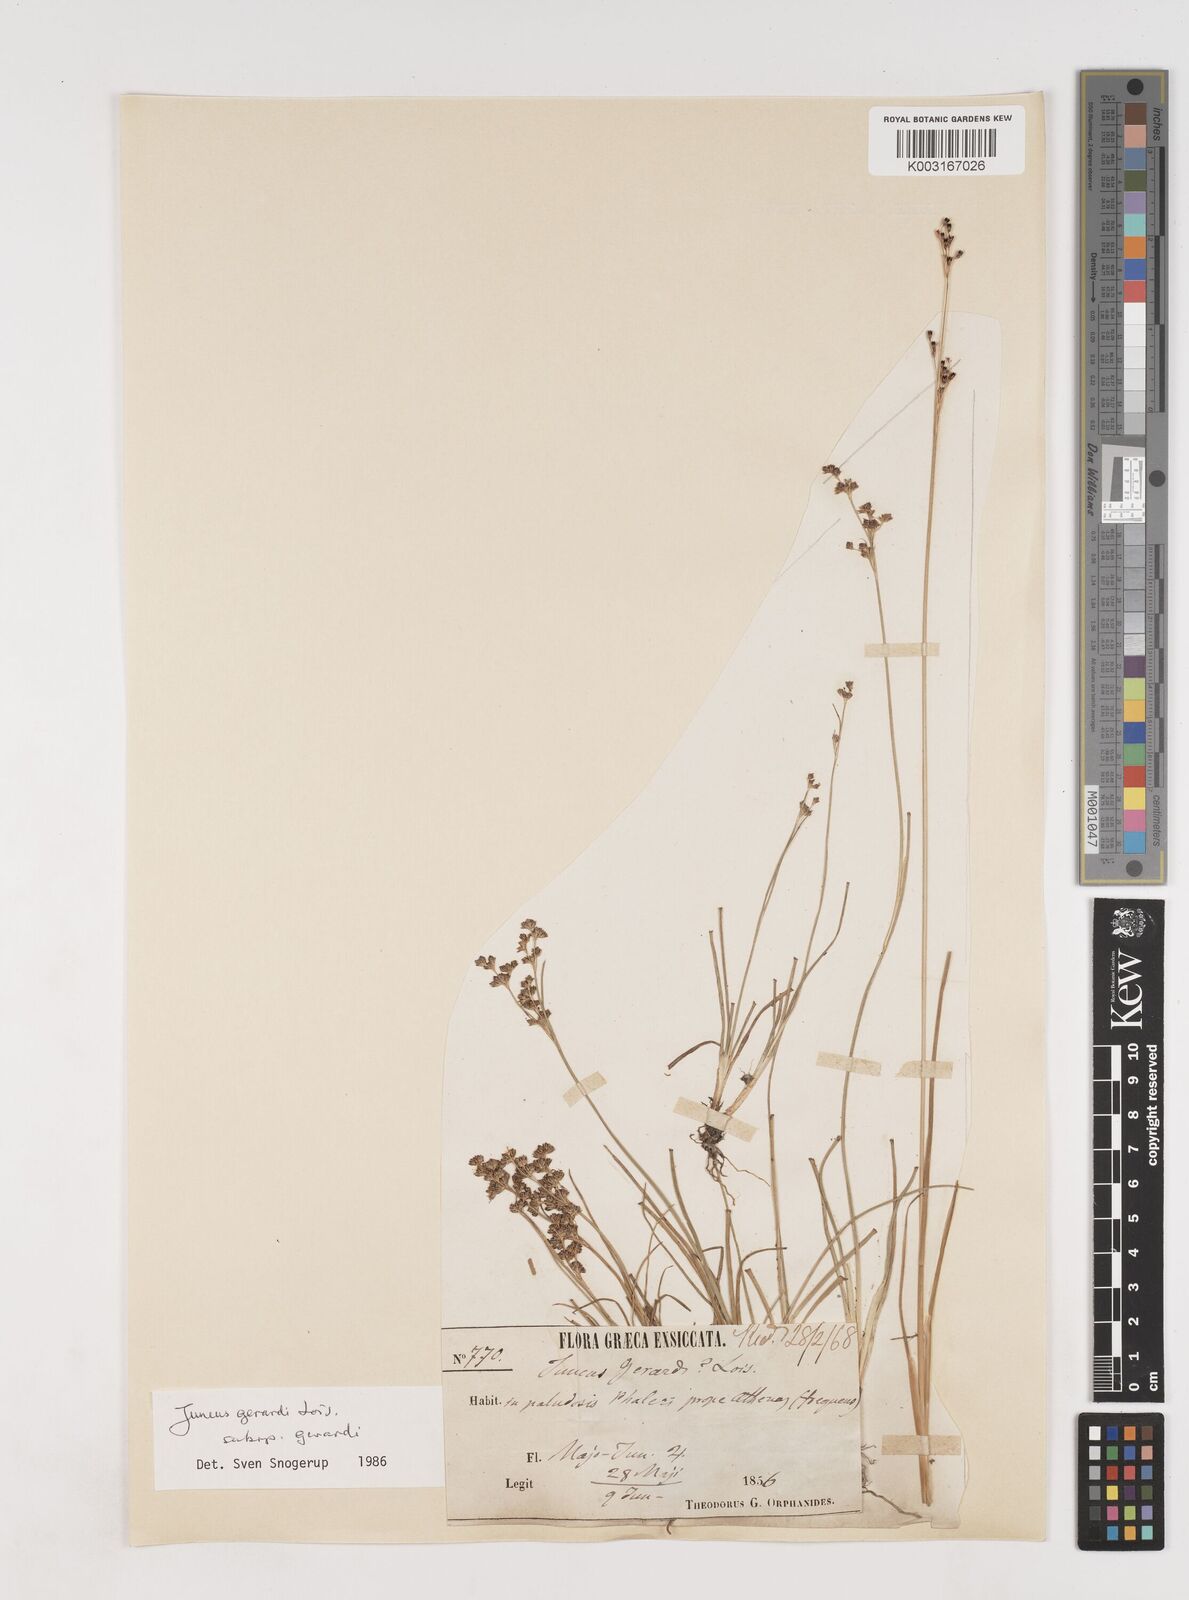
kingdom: Plantae
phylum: Tracheophyta
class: Liliopsida
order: Poales
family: Juncaceae
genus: Juncus
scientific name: Juncus gerardi
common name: Saltmarsh rush
